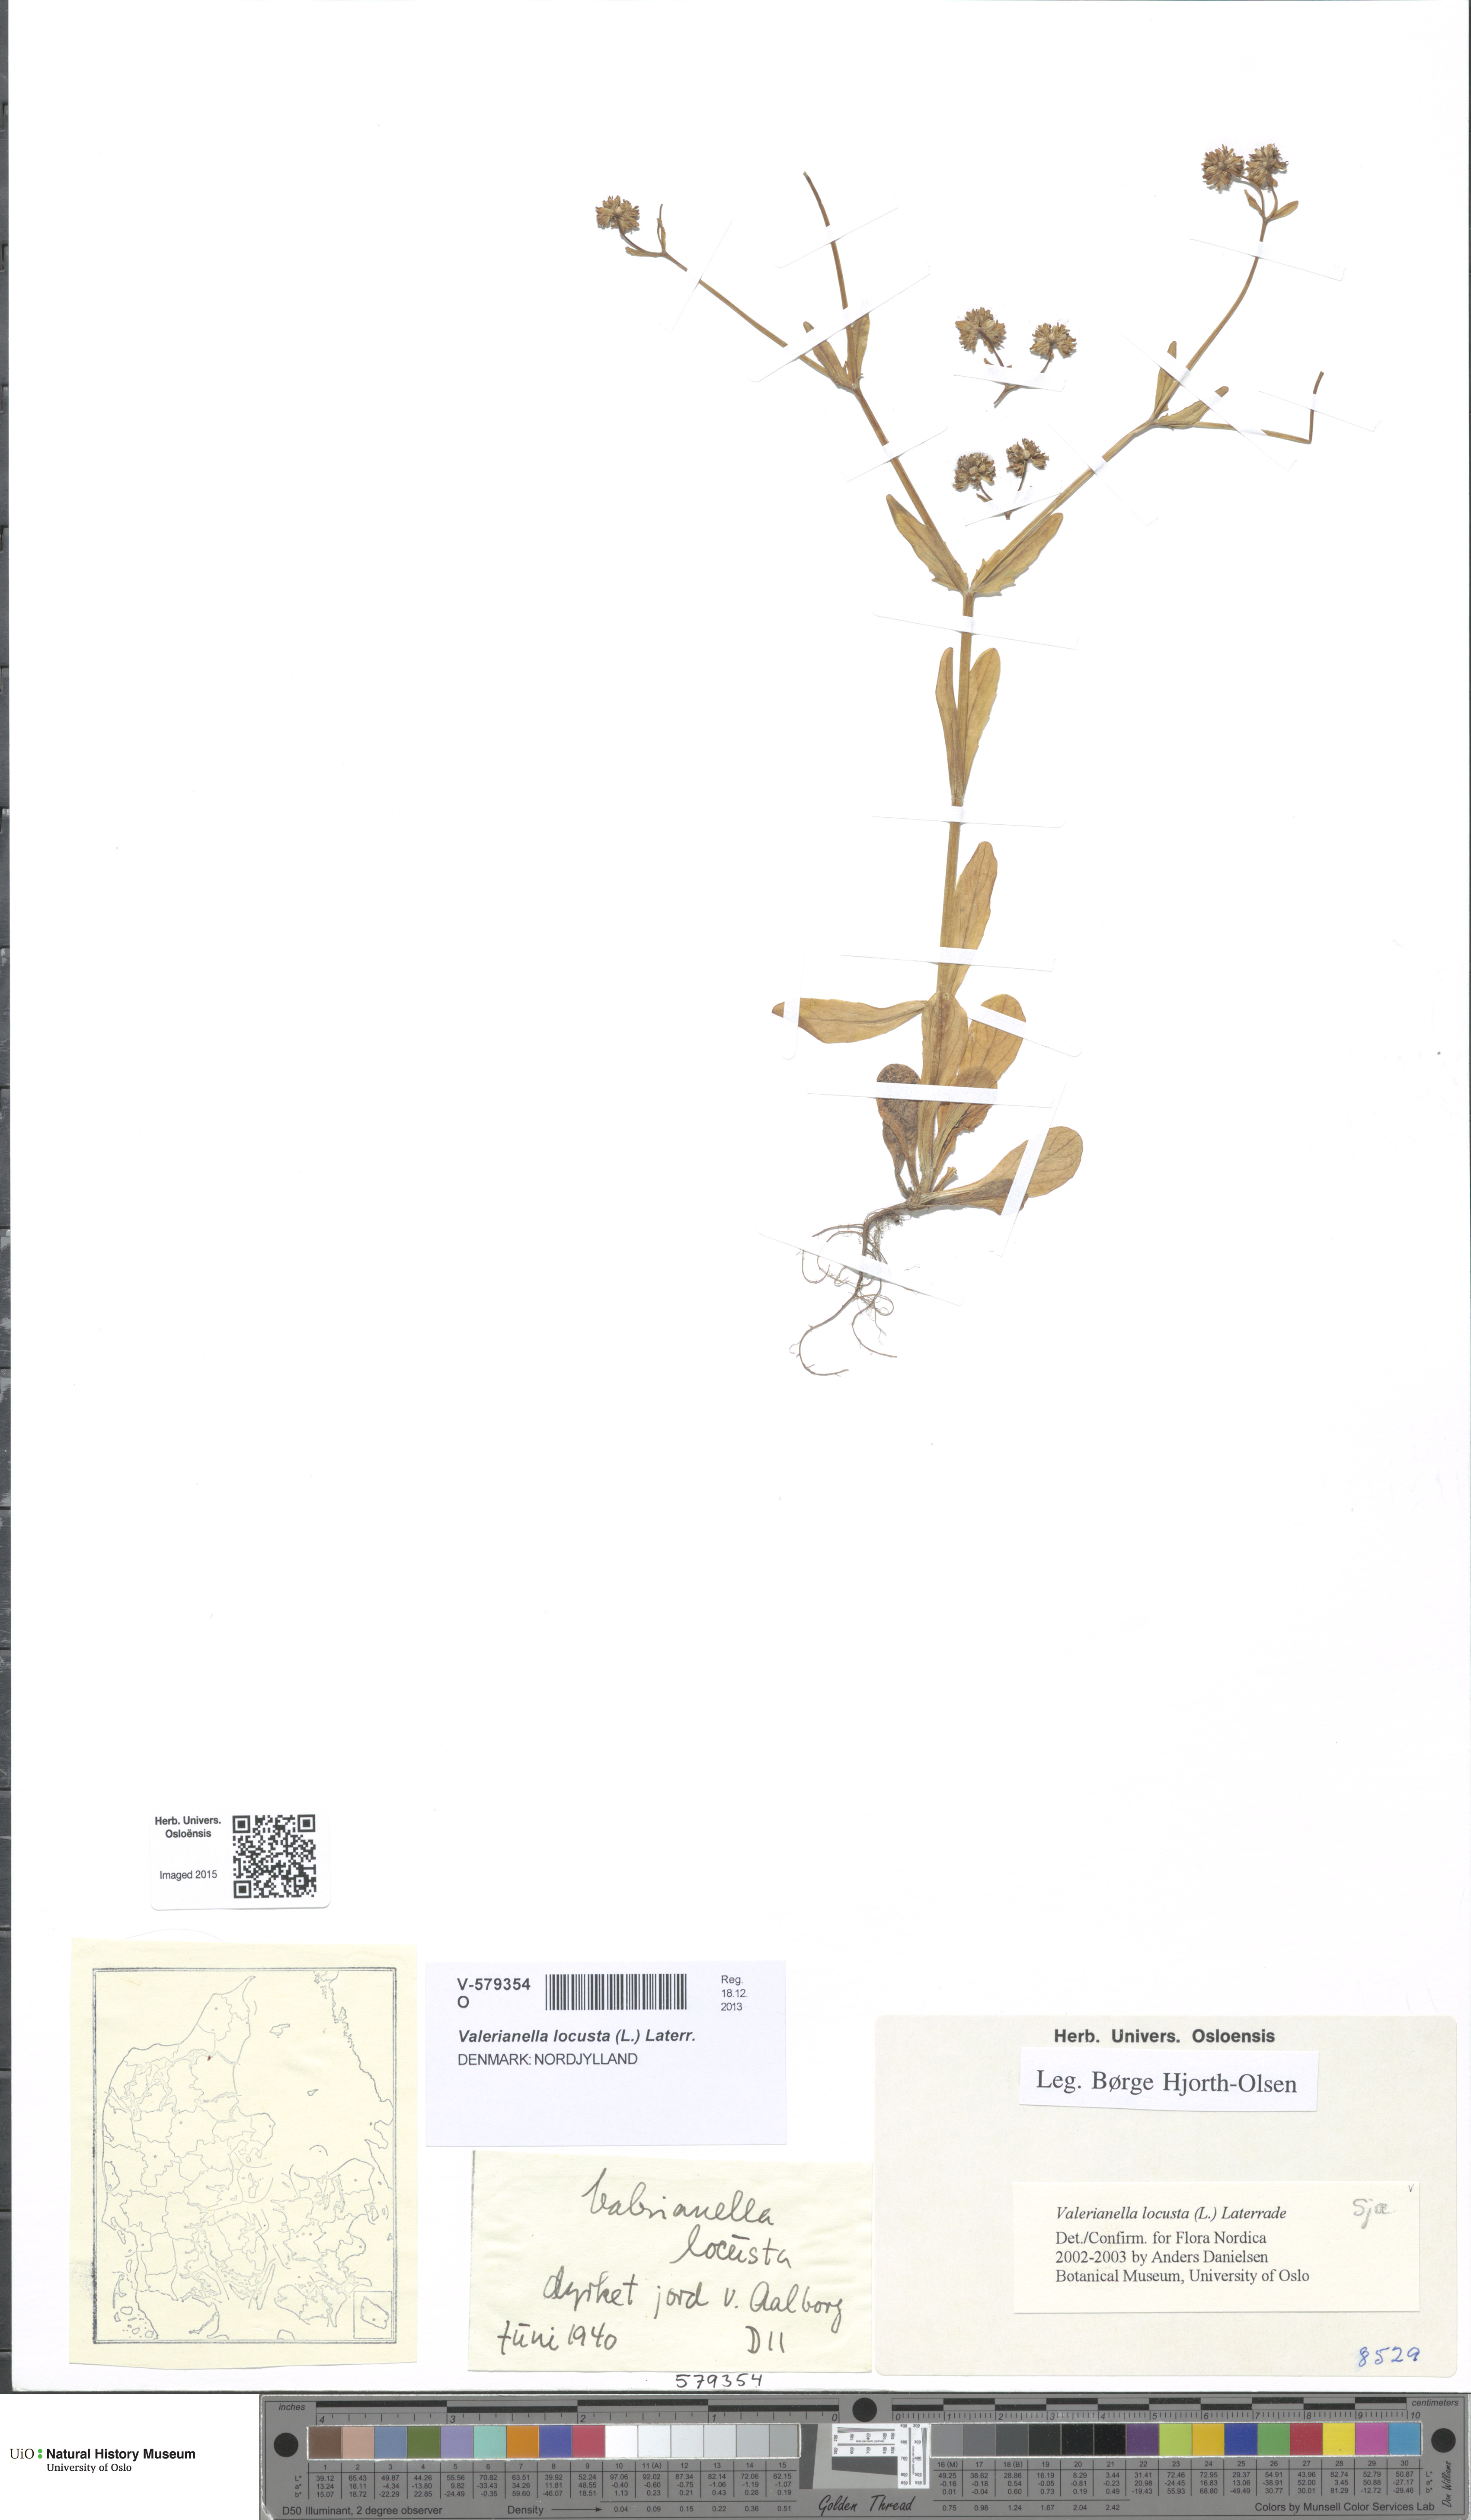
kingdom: Plantae
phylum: Tracheophyta
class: Magnoliopsida
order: Dipsacales
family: Caprifoliaceae
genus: Valerianella
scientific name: Valerianella locusta
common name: Common cornsalad
